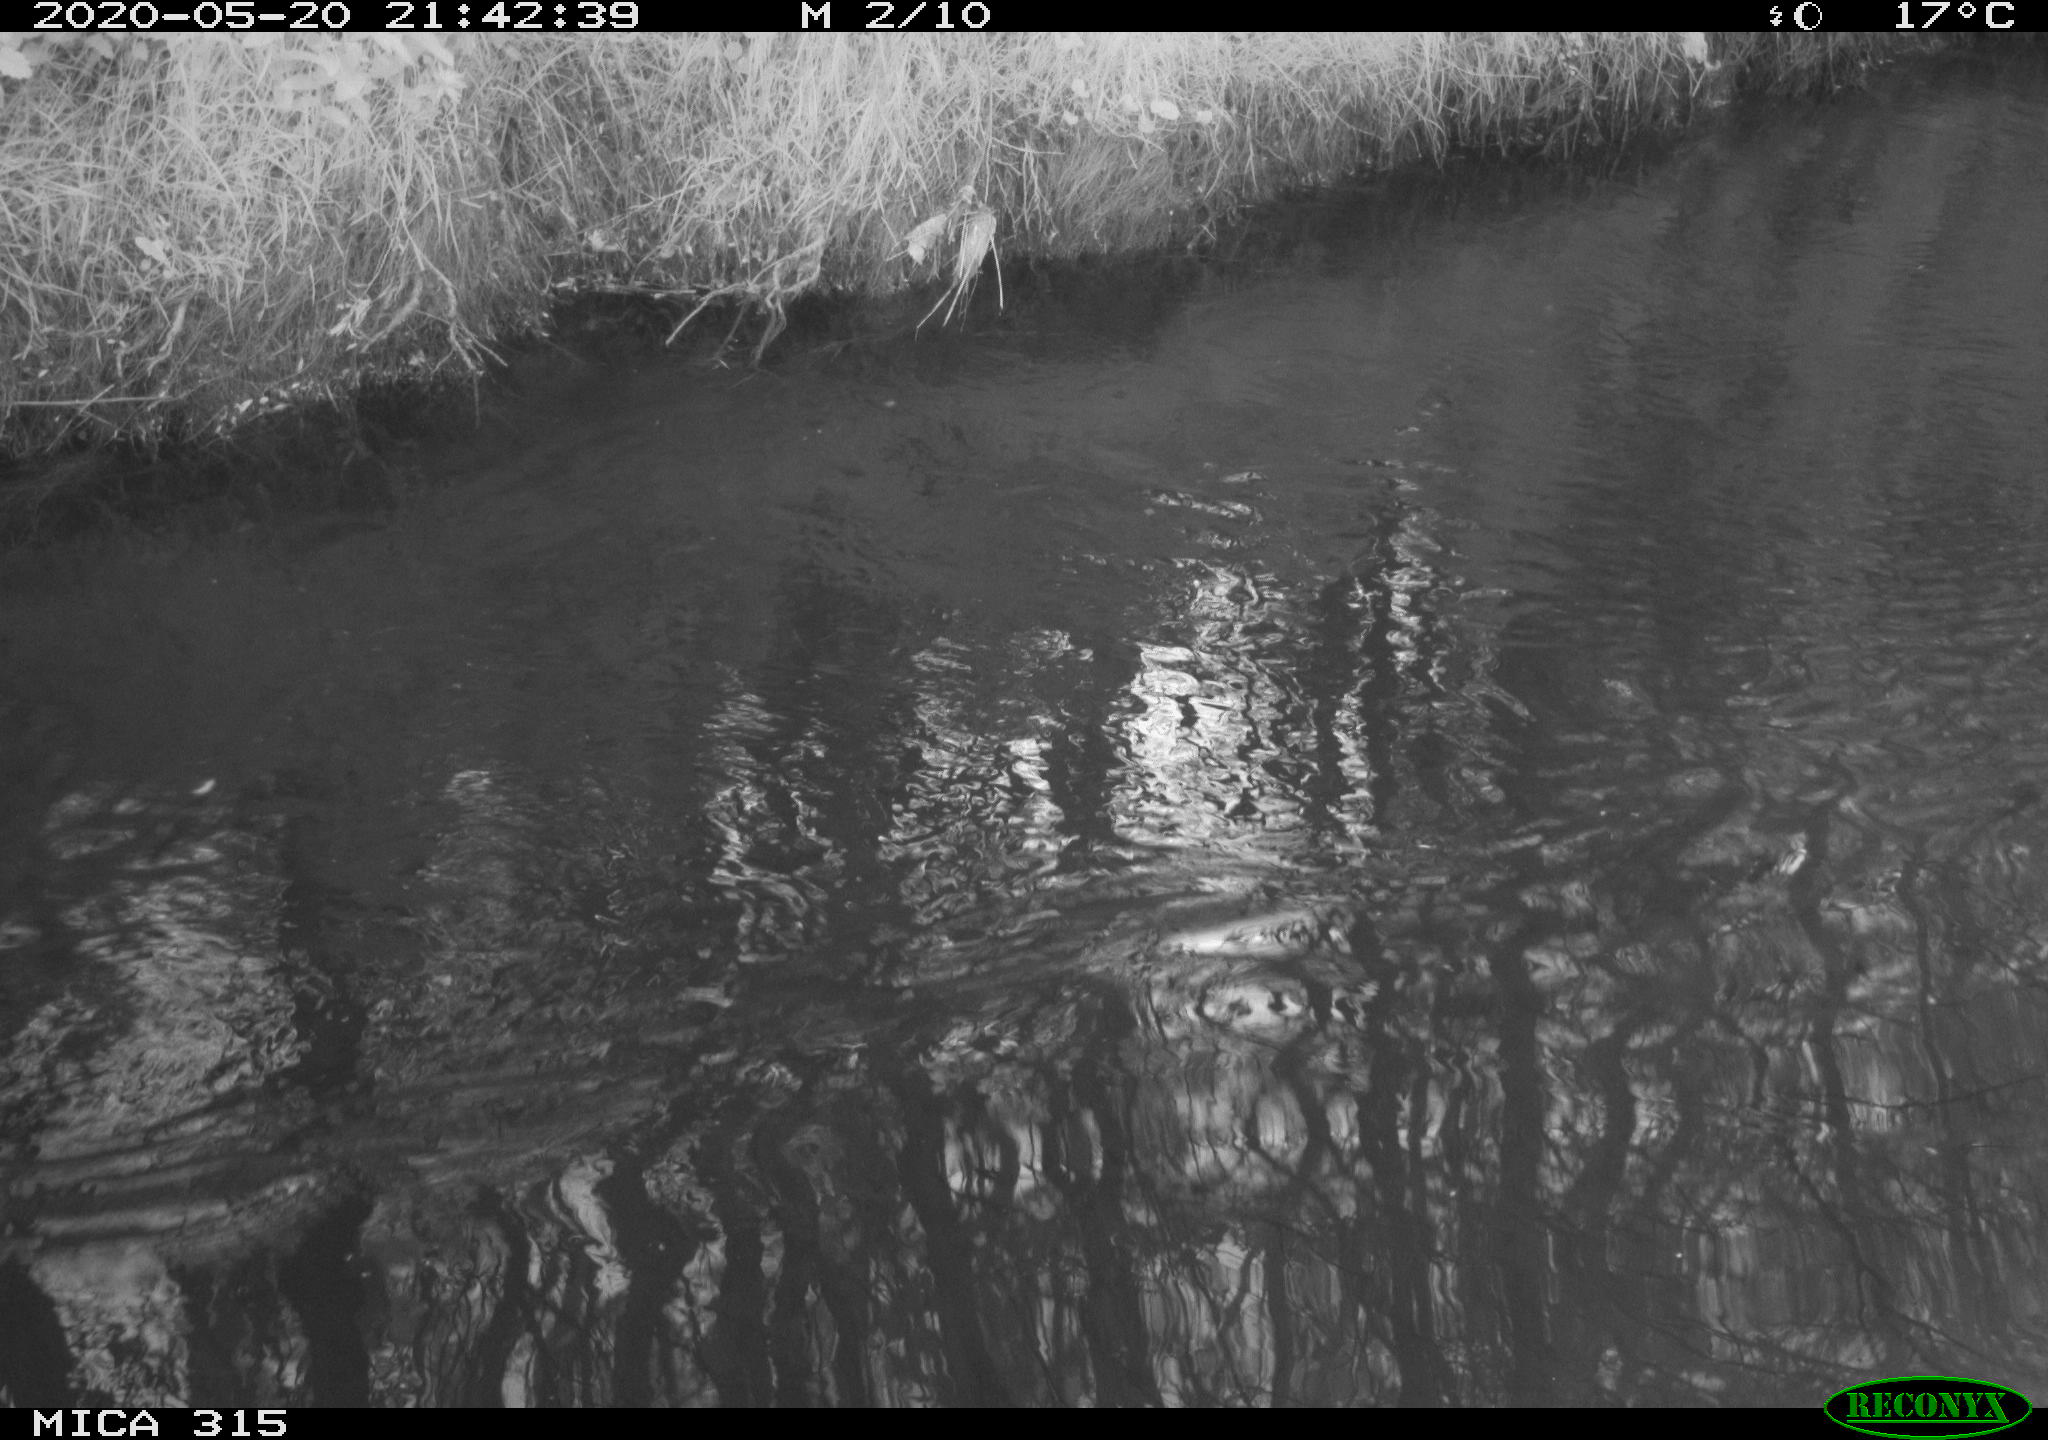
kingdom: Animalia
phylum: Chordata
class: Aves
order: Anseriformes
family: Anatidae
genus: Anas
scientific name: Anas platyrhynchos
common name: Mallard
